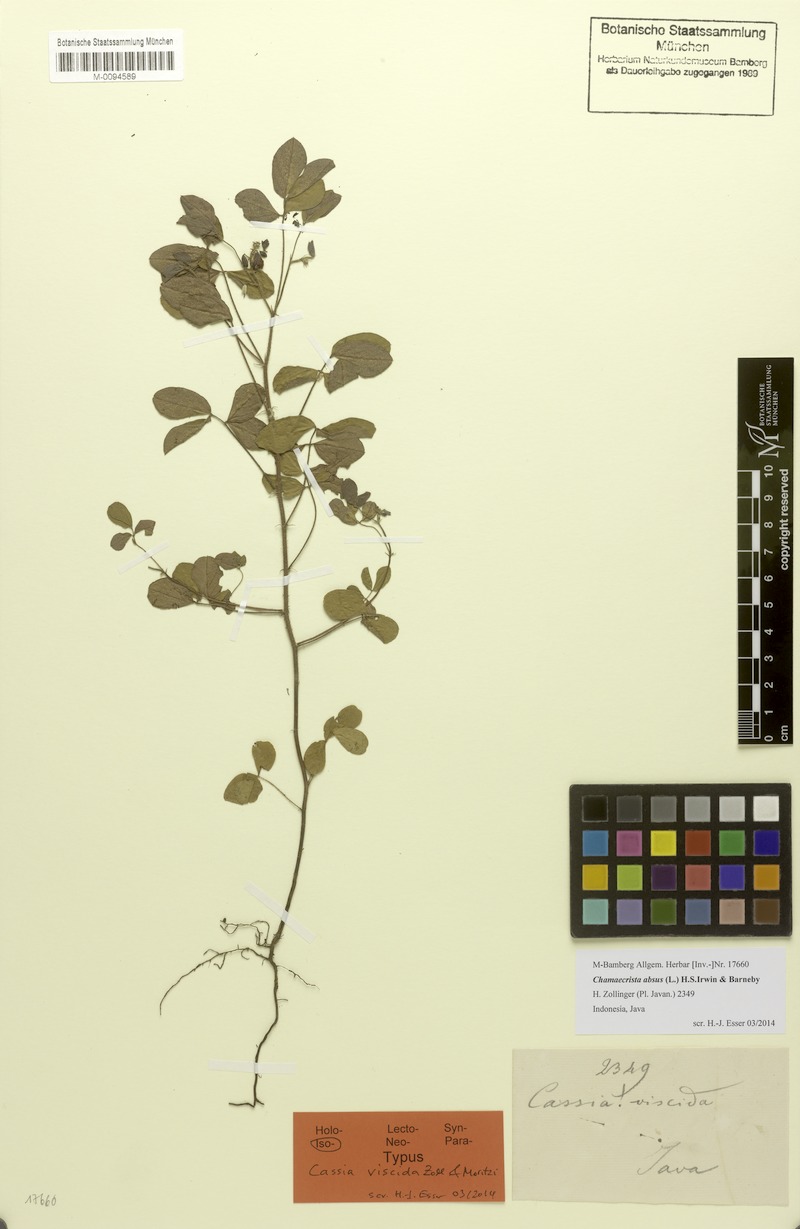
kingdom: Plantae
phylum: Tracheophyta
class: Magnoliopsida
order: Fabales
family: Fabaceae
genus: Chamaecrista
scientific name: Chamaecrista absus
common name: Tropical sensitive pea
